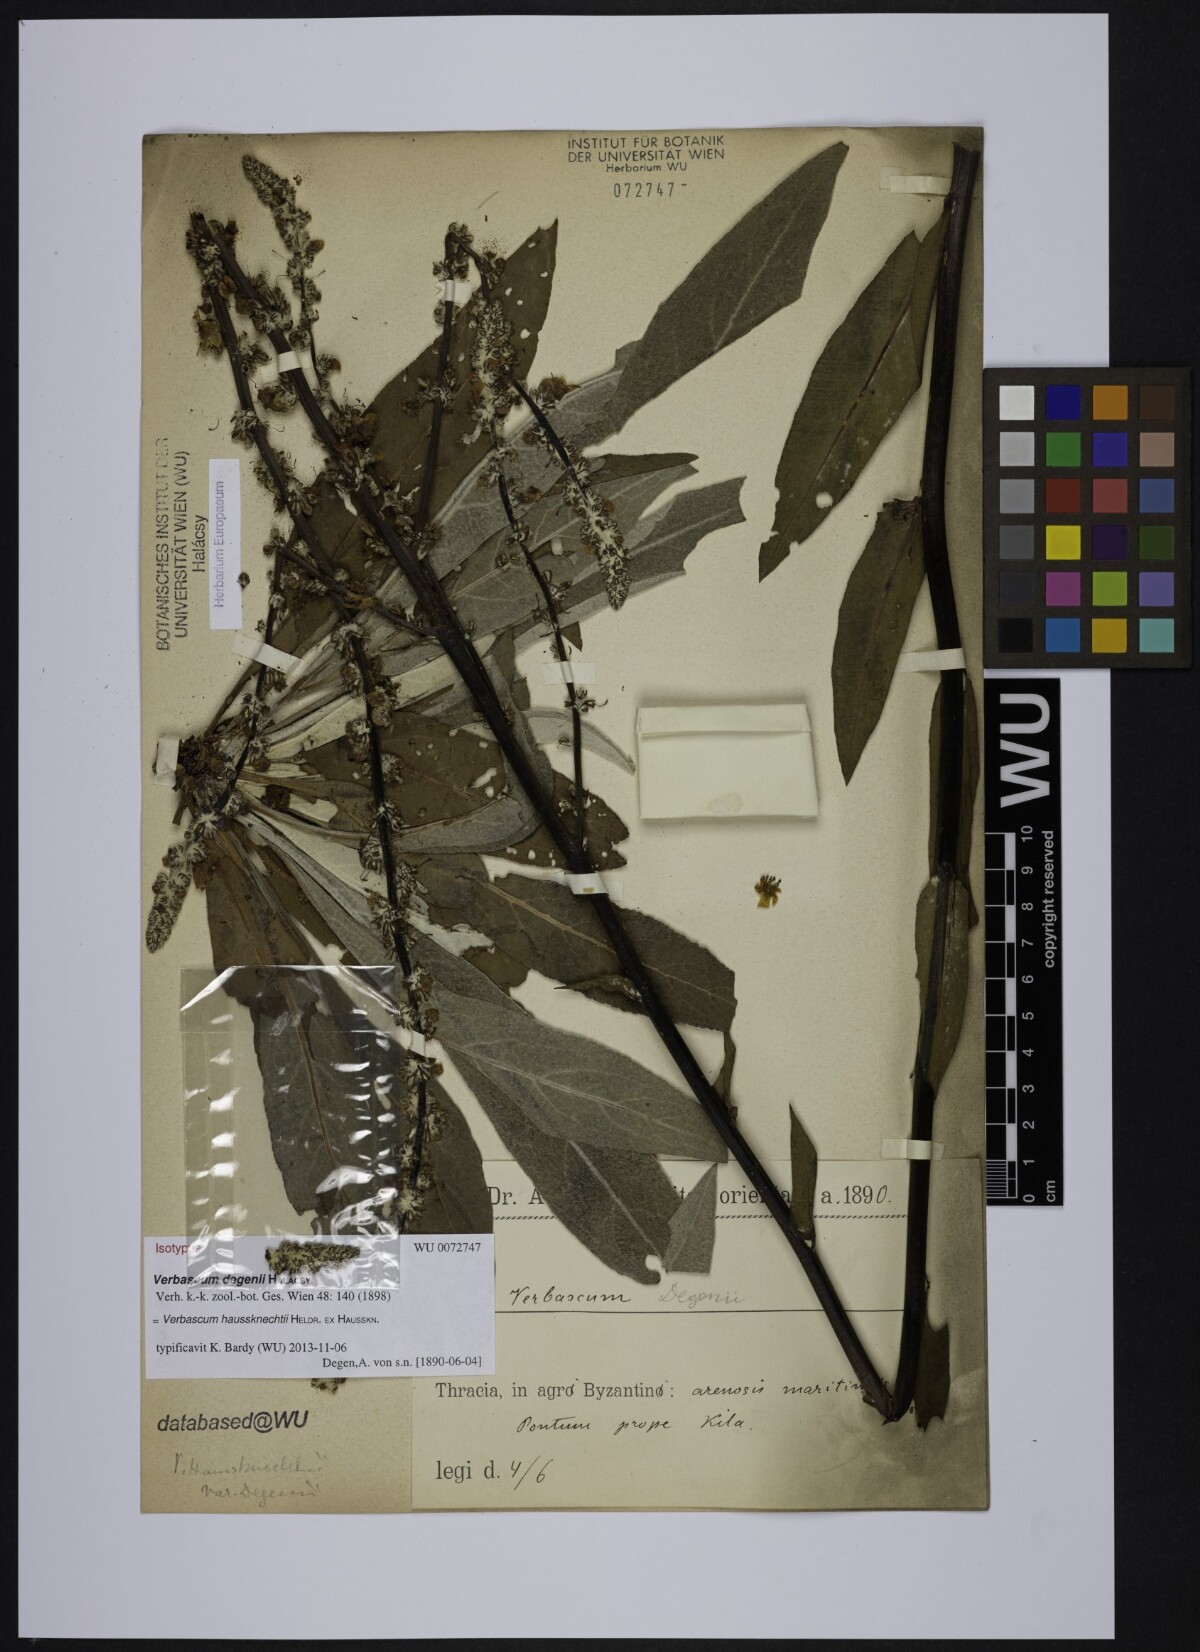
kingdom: Plantae
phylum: Tracheophyta
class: Magnoliopsida
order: Lamiales
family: Scrophulariaceae
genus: Verbascum
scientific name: Verbascum graecum
